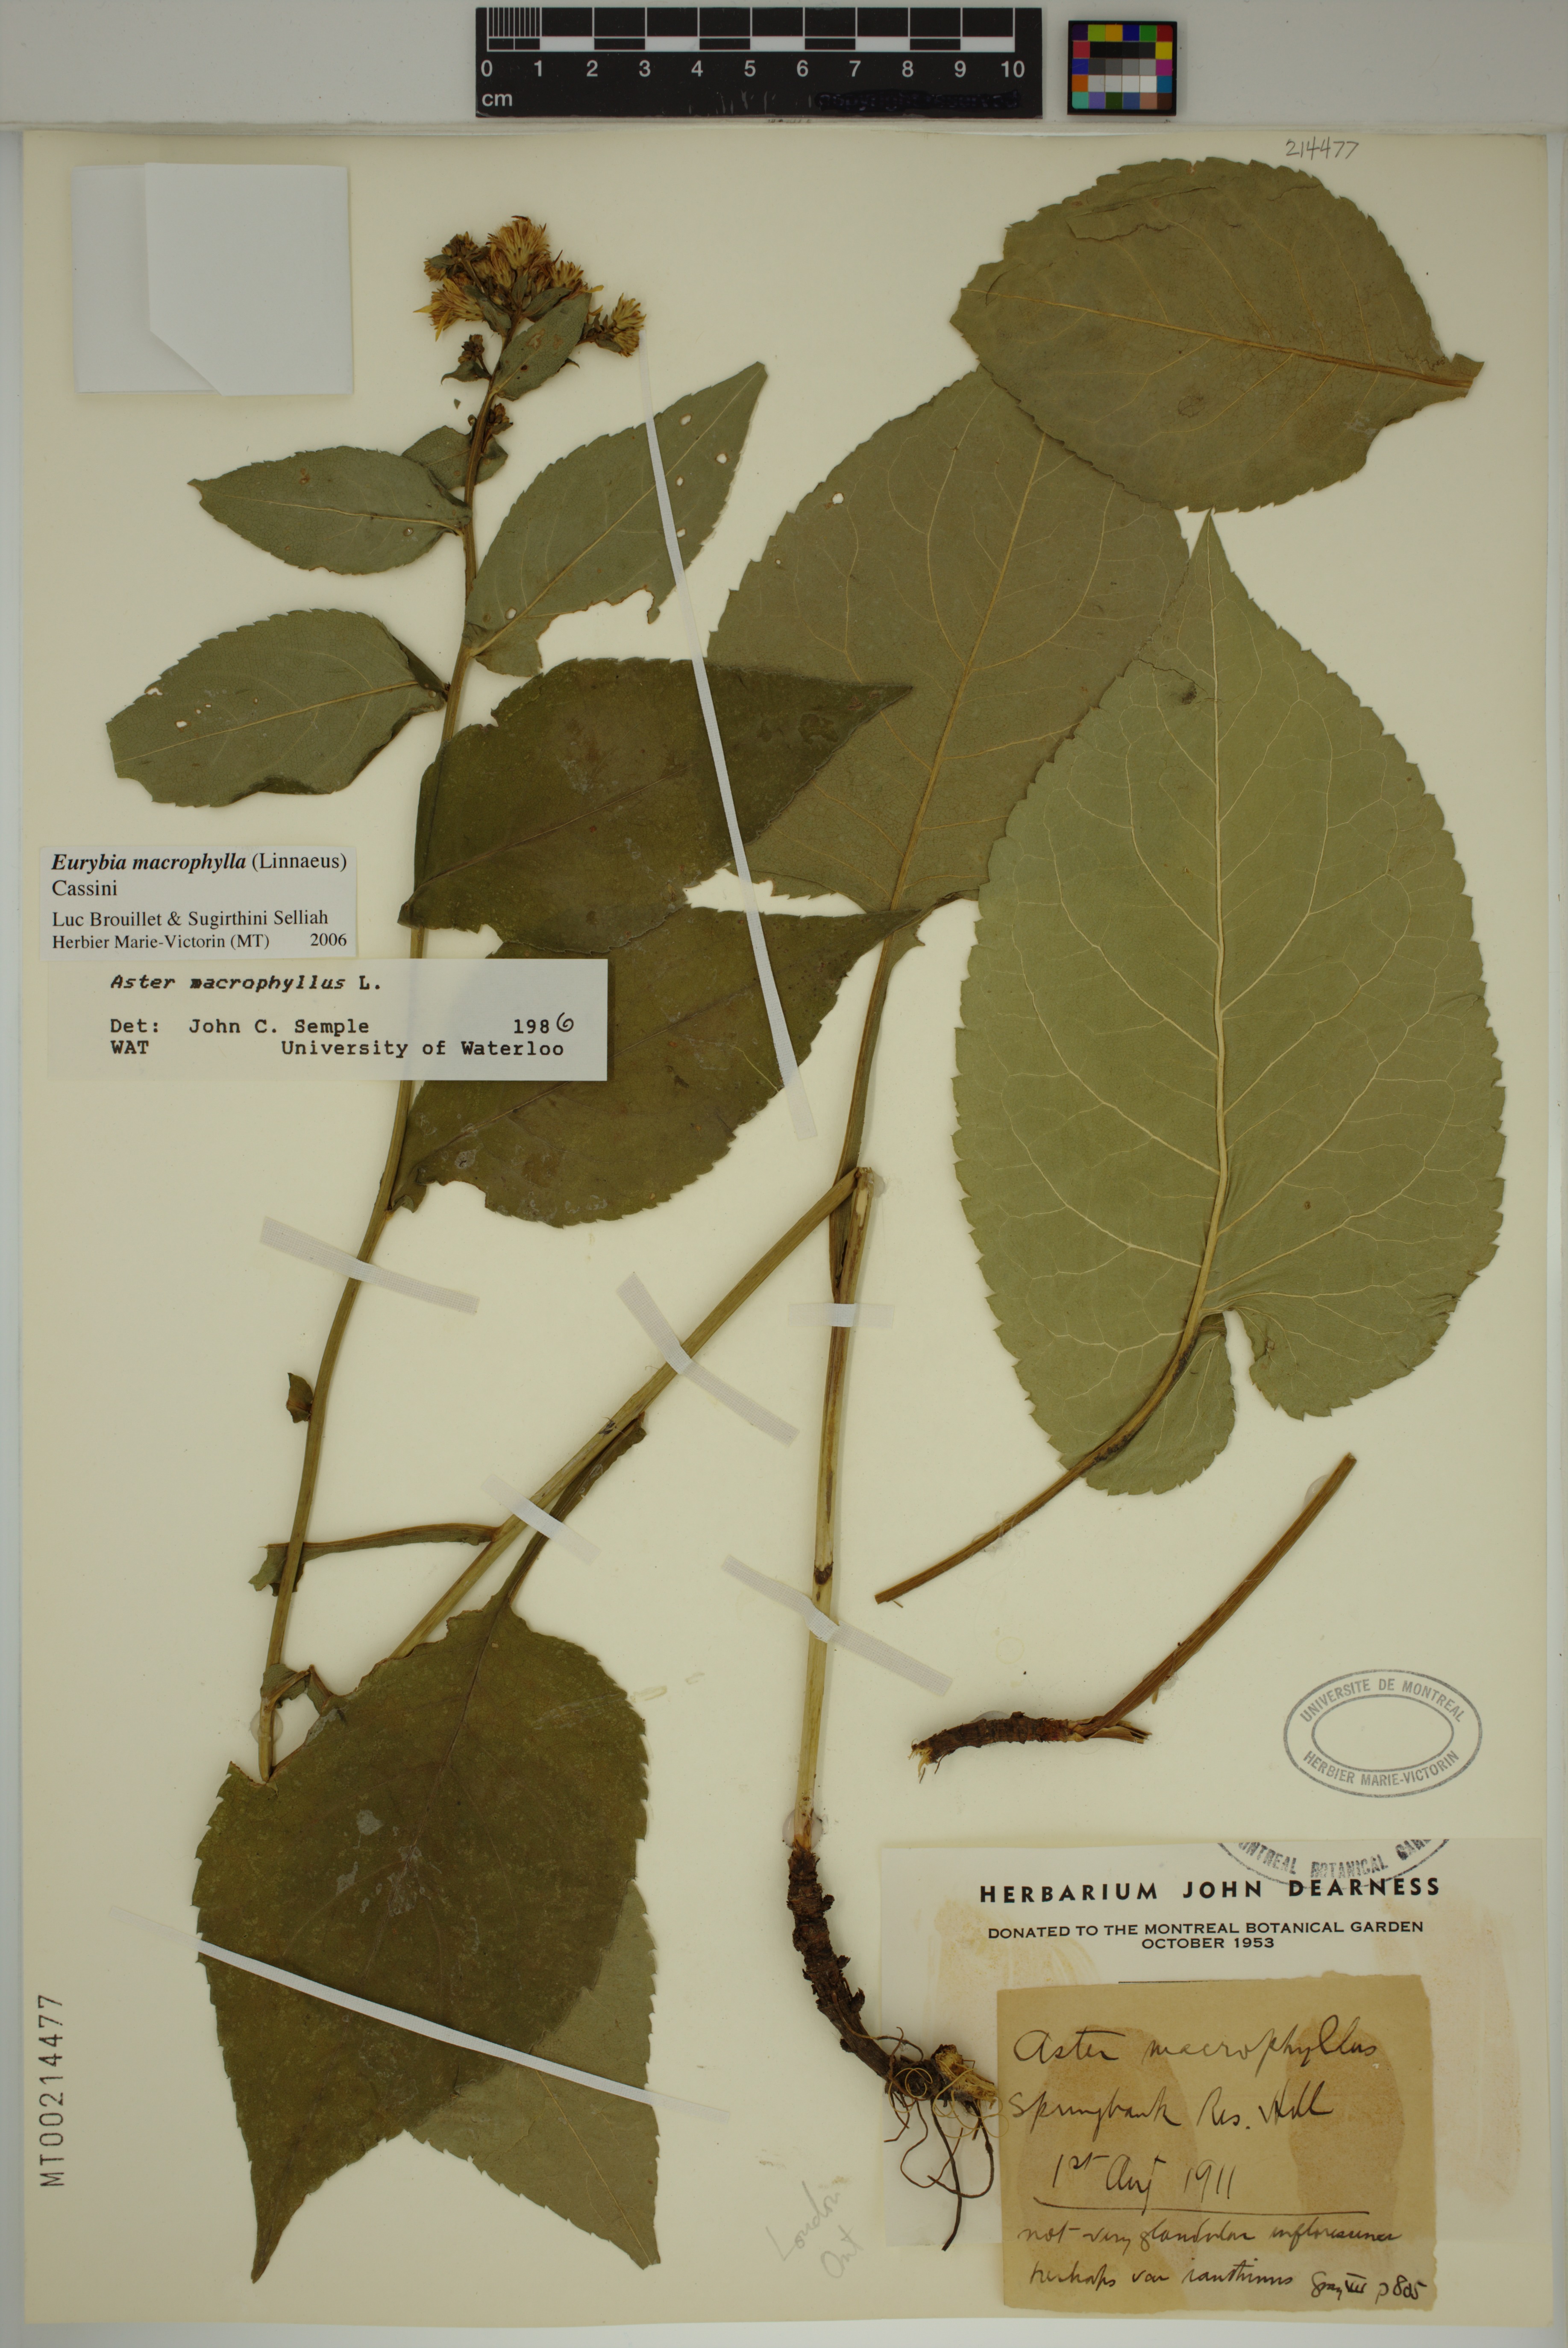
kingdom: Plantae
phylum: Tracheophyta
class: Magnoliopsida
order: Asterales
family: Asteraceae
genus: Eurybia
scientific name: Eurybia macrophylla
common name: Big-leaved aster
